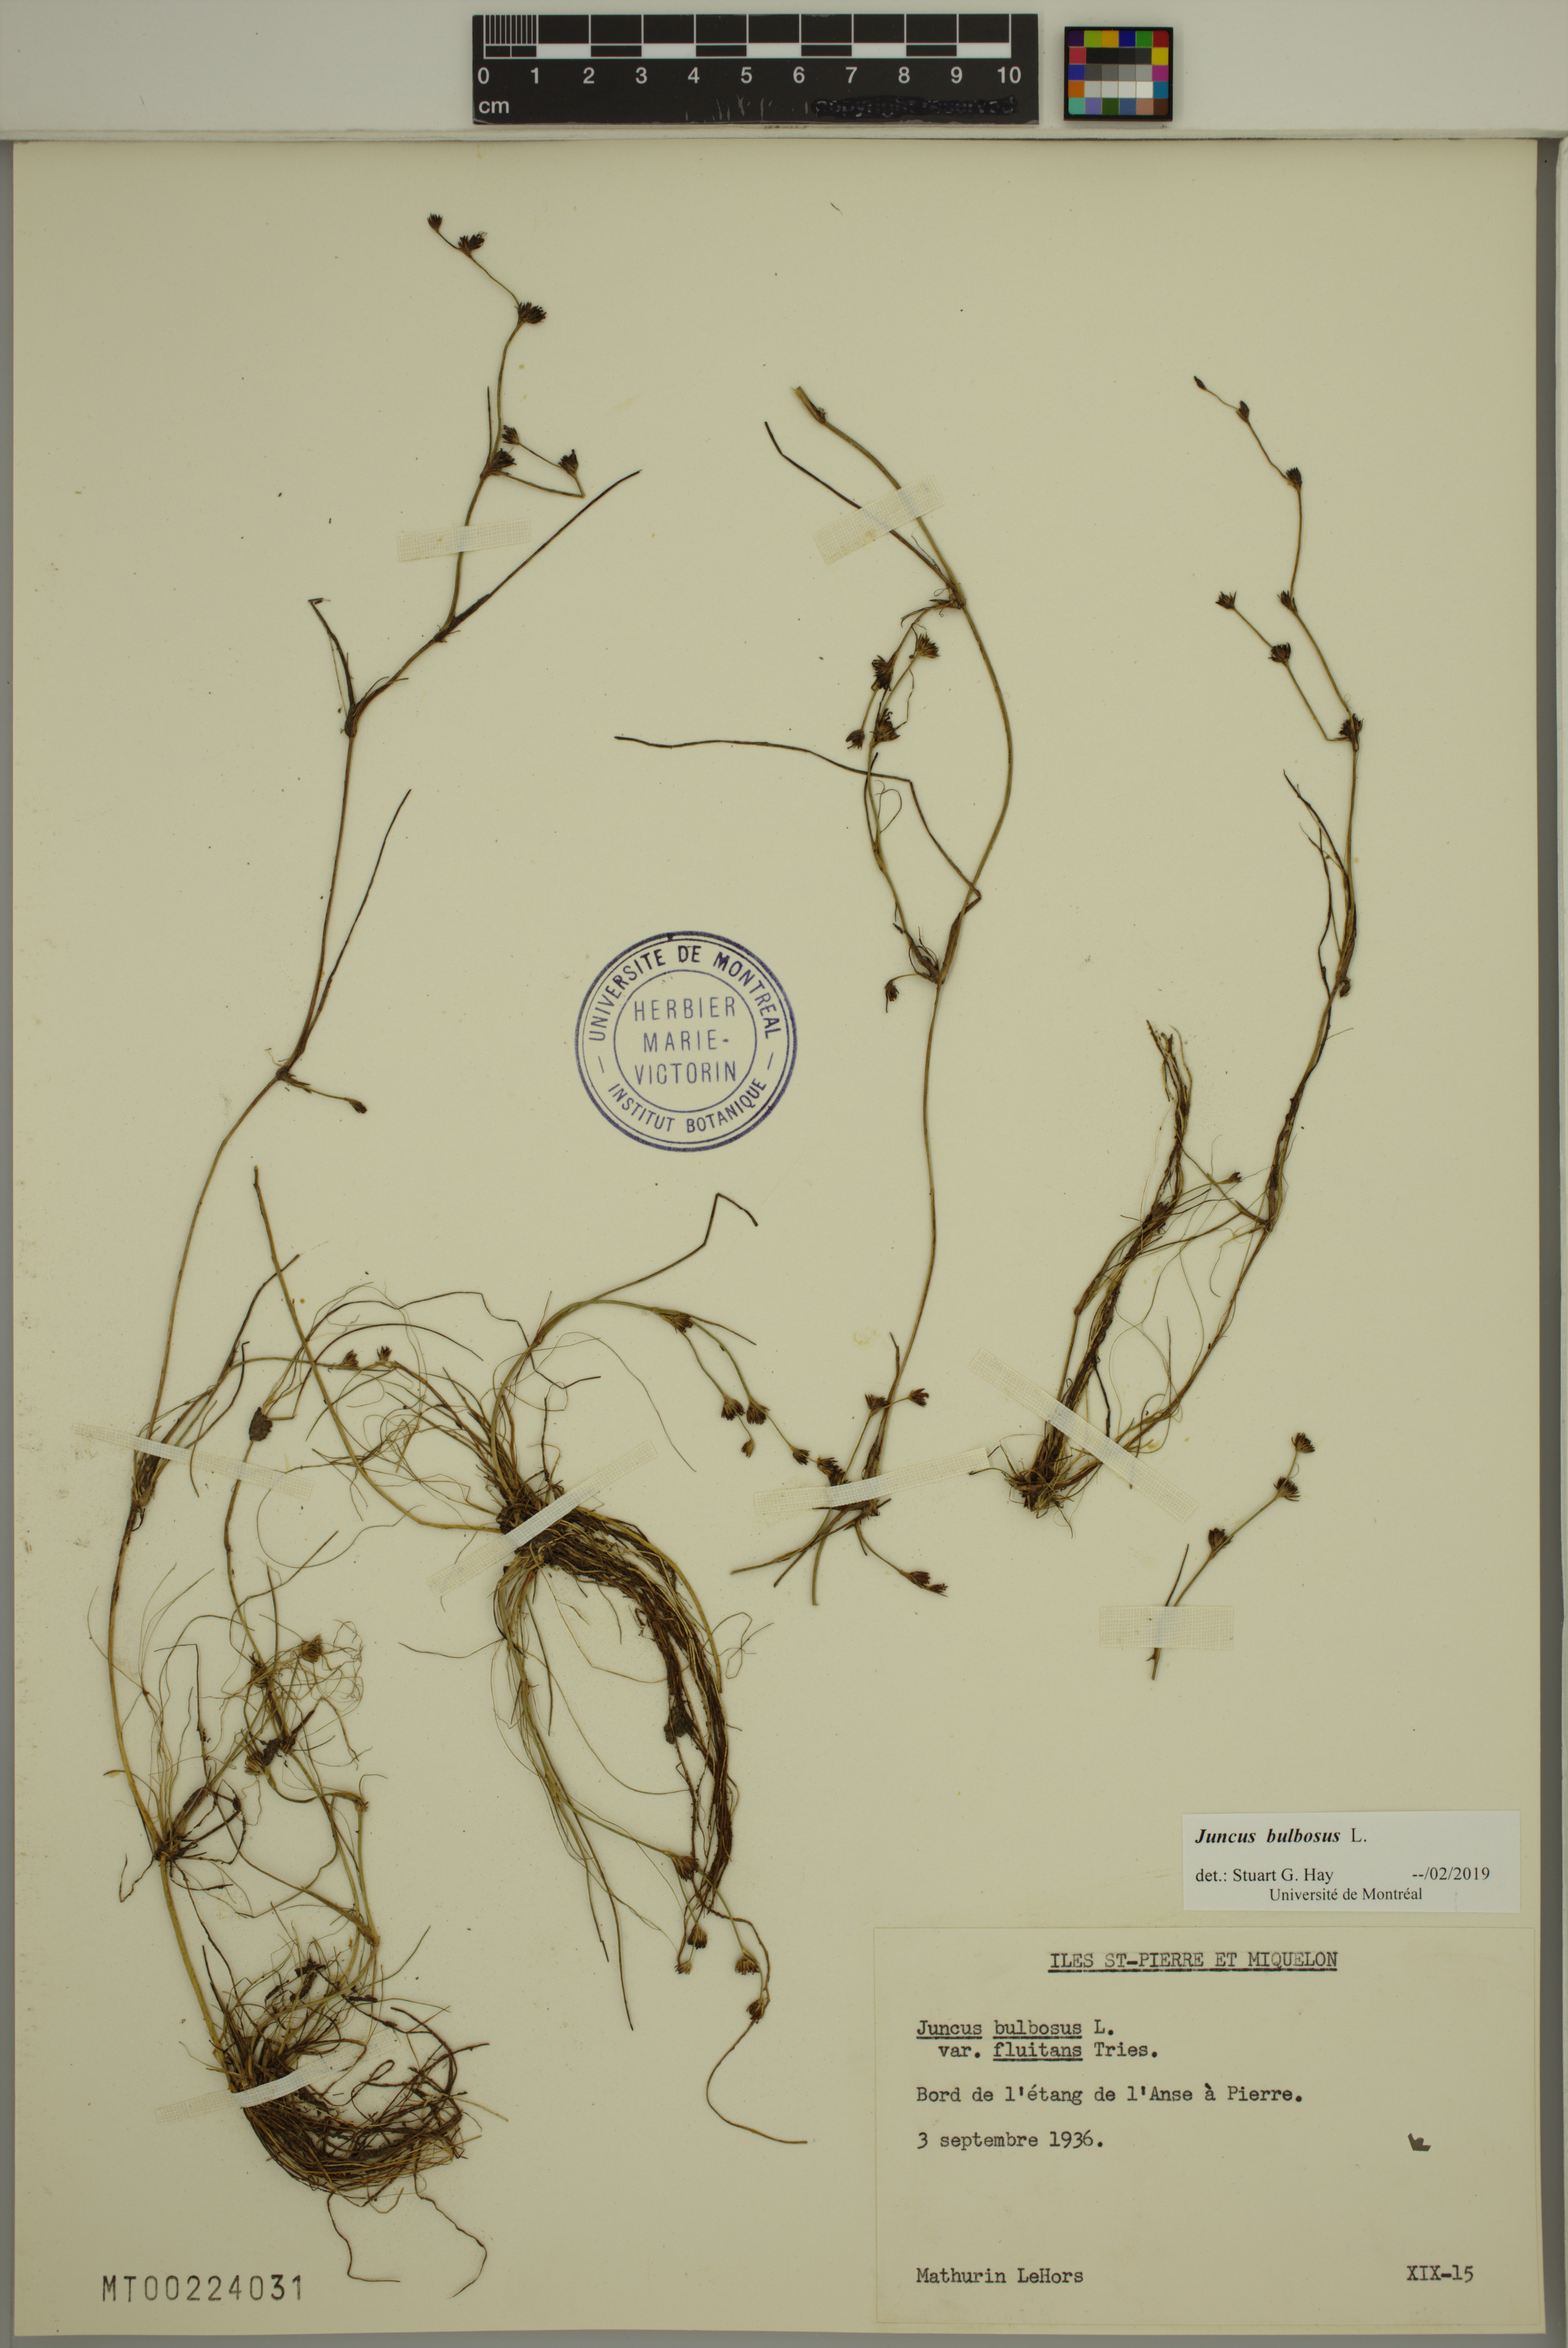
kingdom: Plantae
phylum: Tracheophyta
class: Liliopsida
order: Poales
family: Juncaceae
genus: Juncus
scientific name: Juncus bulbosus
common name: Bulbous rush
